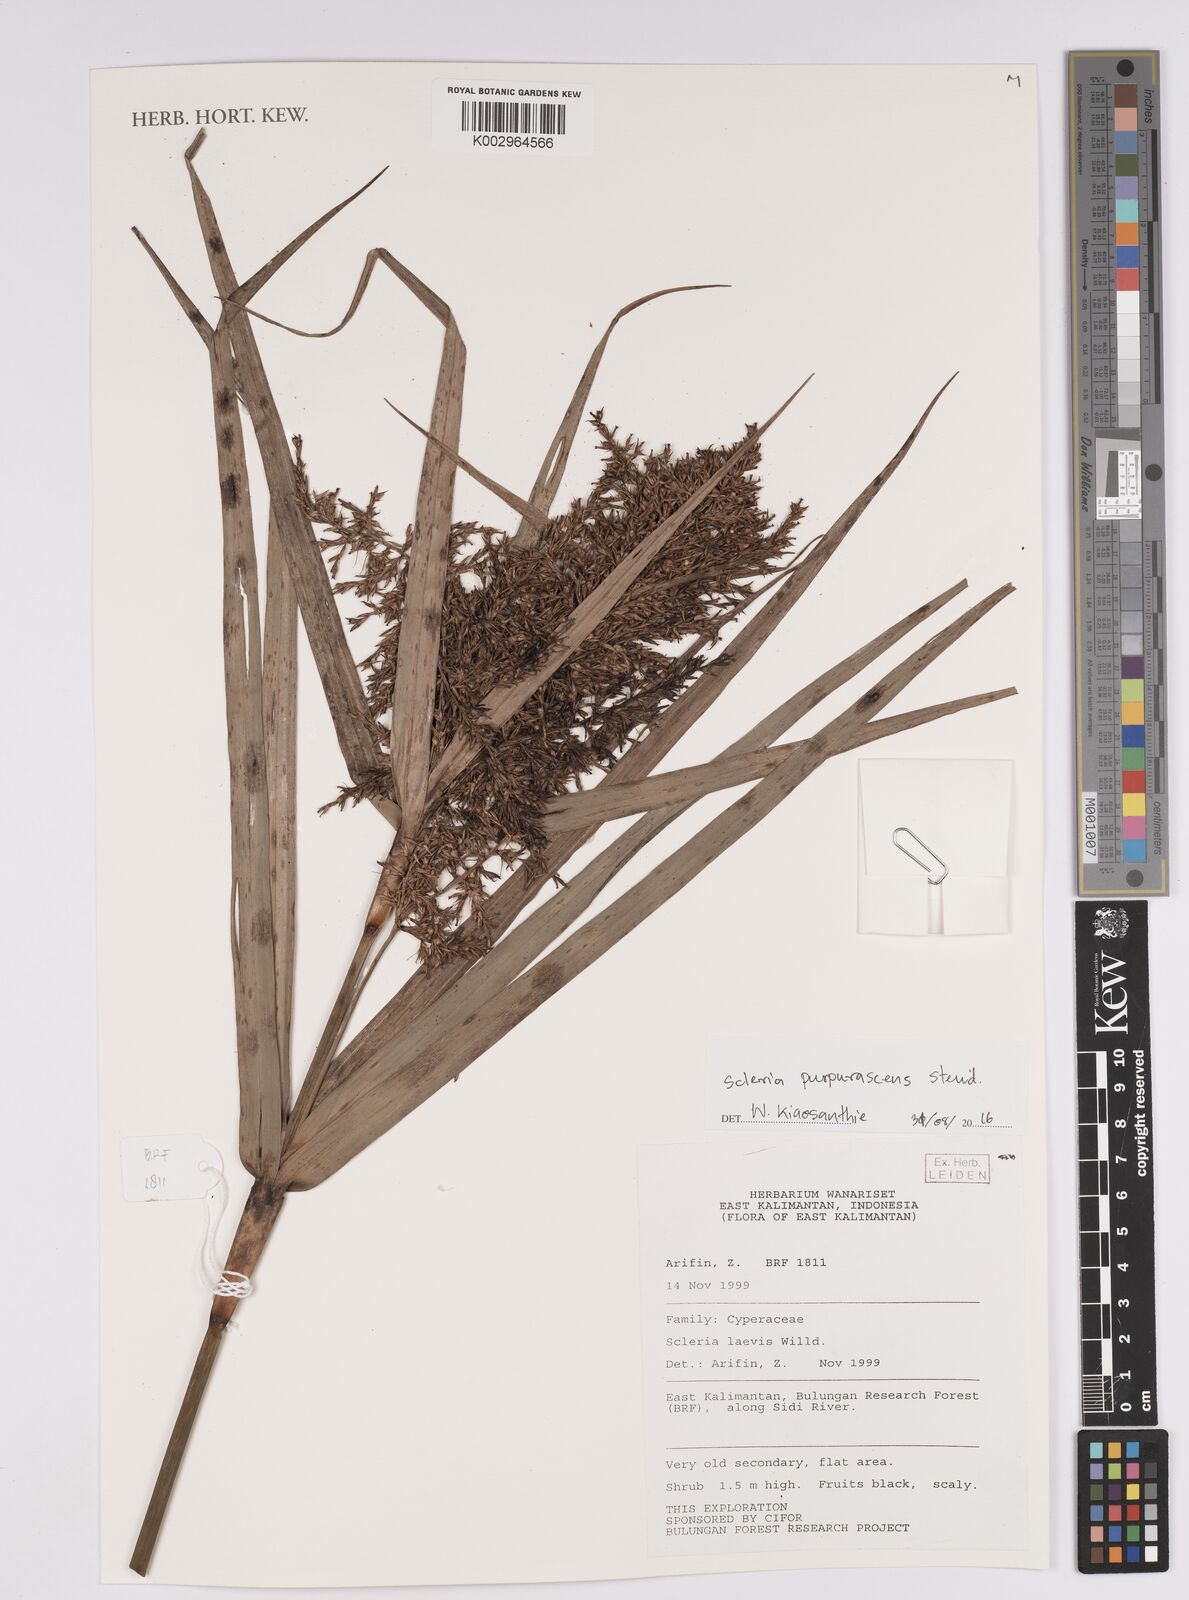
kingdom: Plantae
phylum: Tracheophyta
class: Liliopsida
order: Poales
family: Cyperaceae
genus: Scleria
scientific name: Scleria purpurascens
